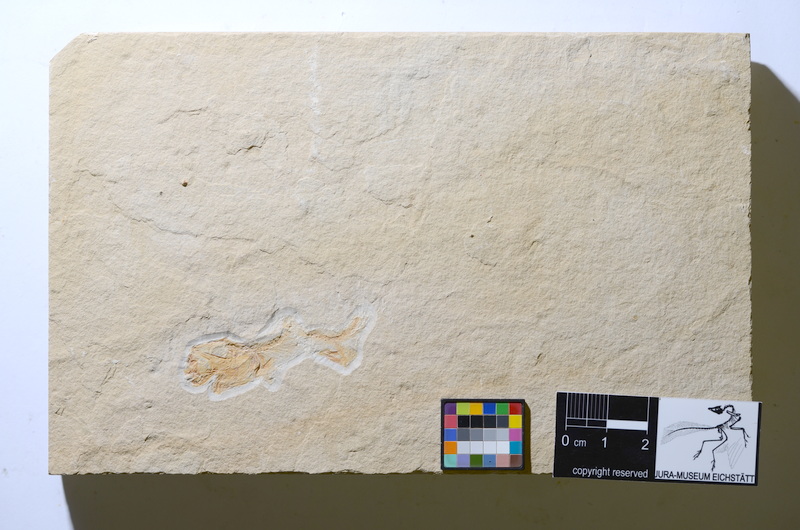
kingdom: Animalia
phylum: Chordata
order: Salmoniformes
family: Orthogonikleithridae
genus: Leptolepides
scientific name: Leptolepides
